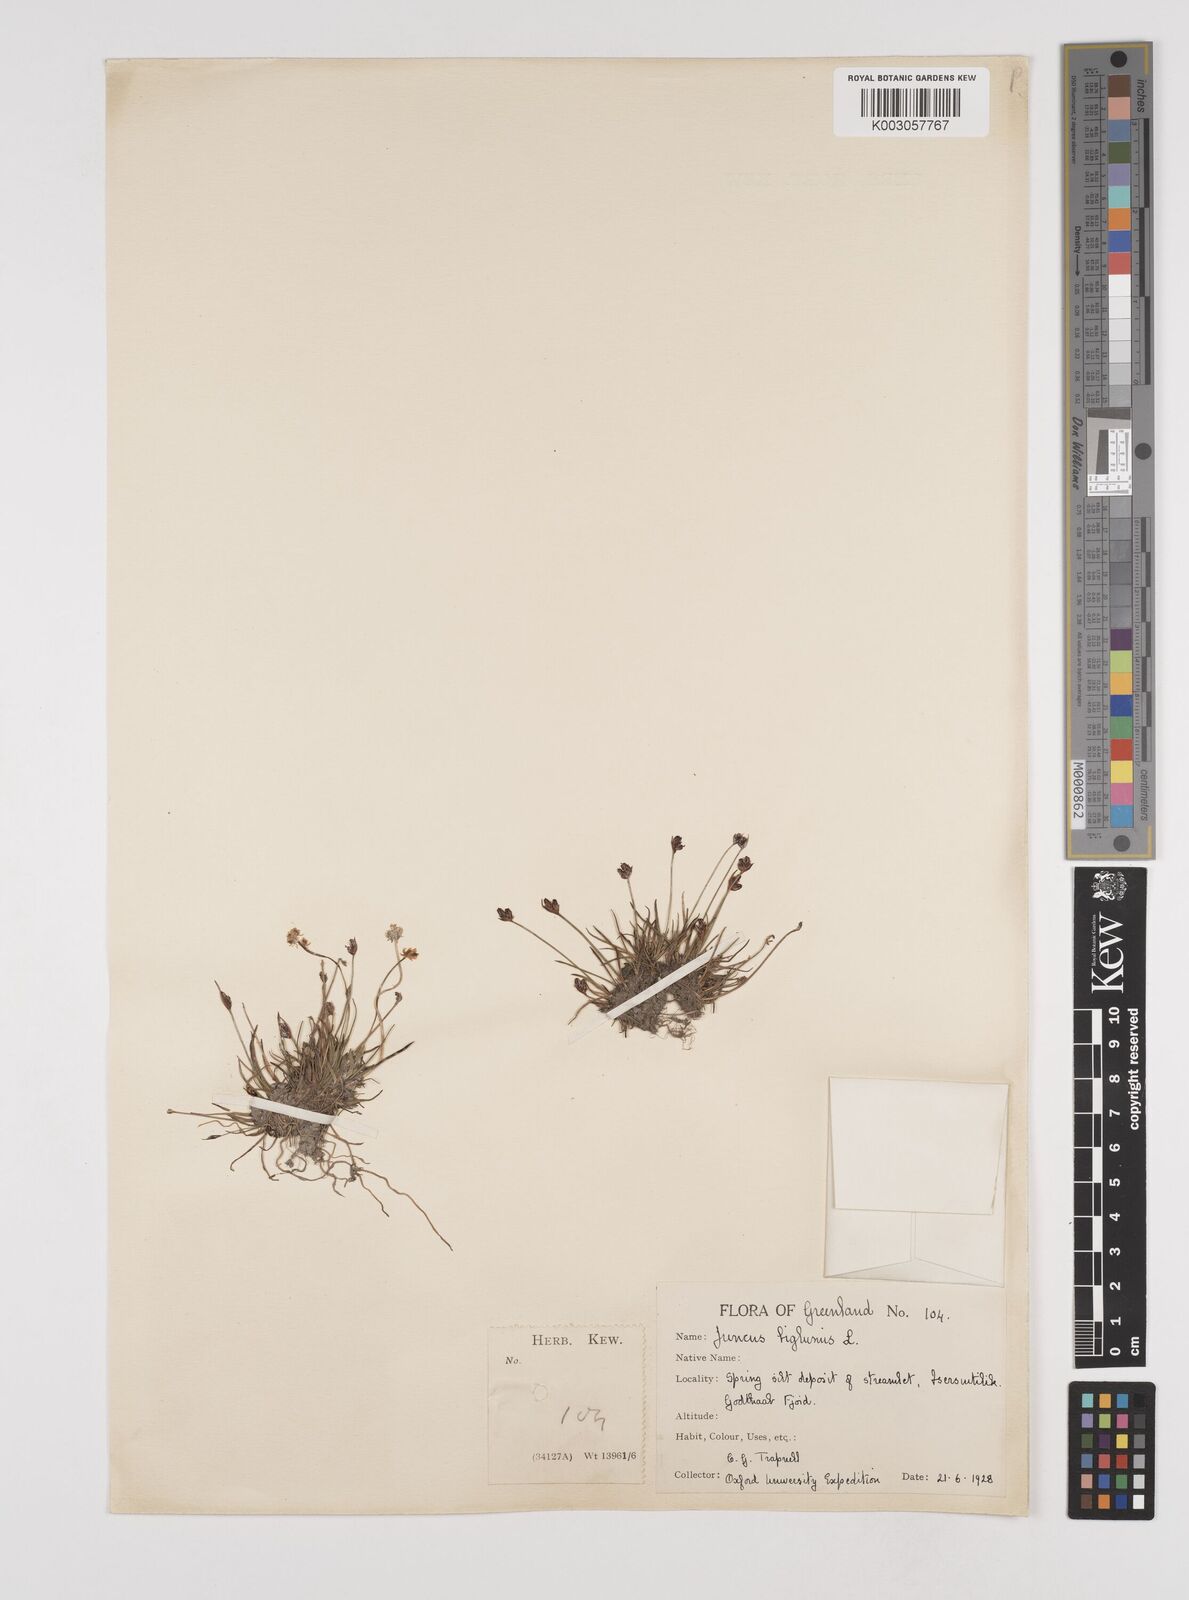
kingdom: Plantae
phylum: Tracheophyta
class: Liliopsida
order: Poales
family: Juncaceae
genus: Juncus
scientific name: Juncus biglumis
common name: Two-flowered rush
